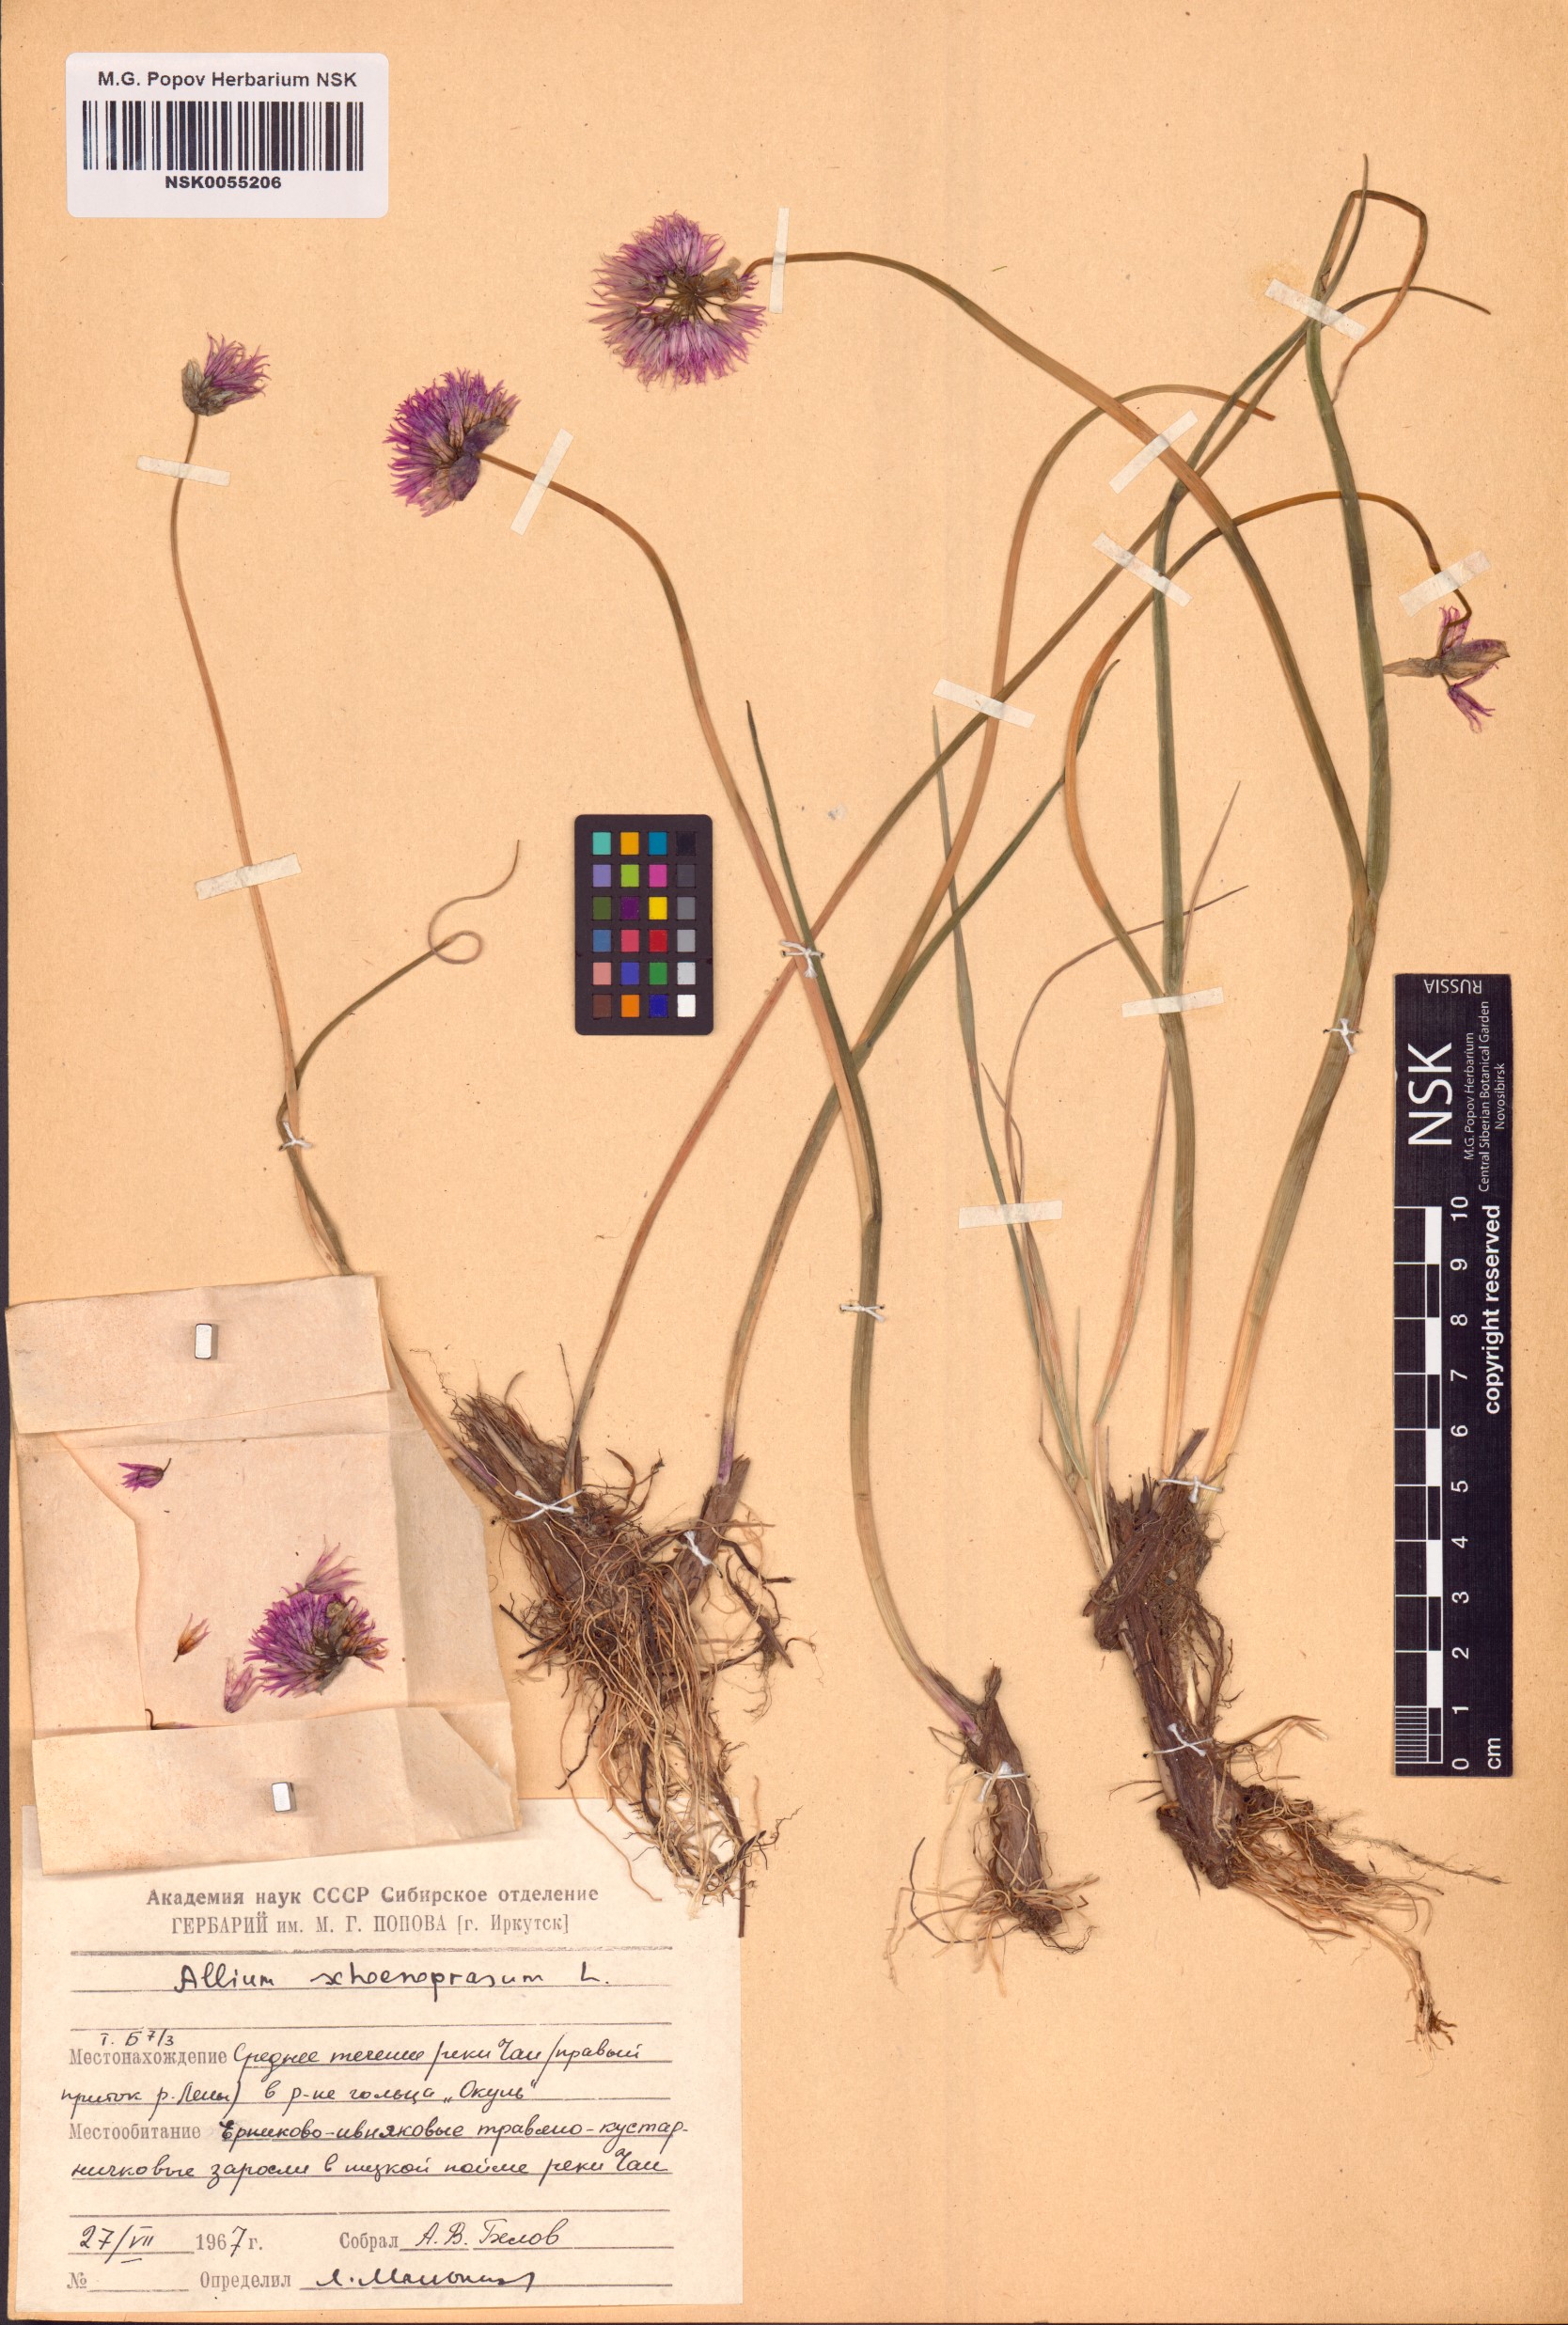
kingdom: Plantae
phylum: Tracheophyta
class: Liliopsida
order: Asparagales
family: Amaryllidaceae
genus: Allium
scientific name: Allium schoenoprasum
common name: Chives
